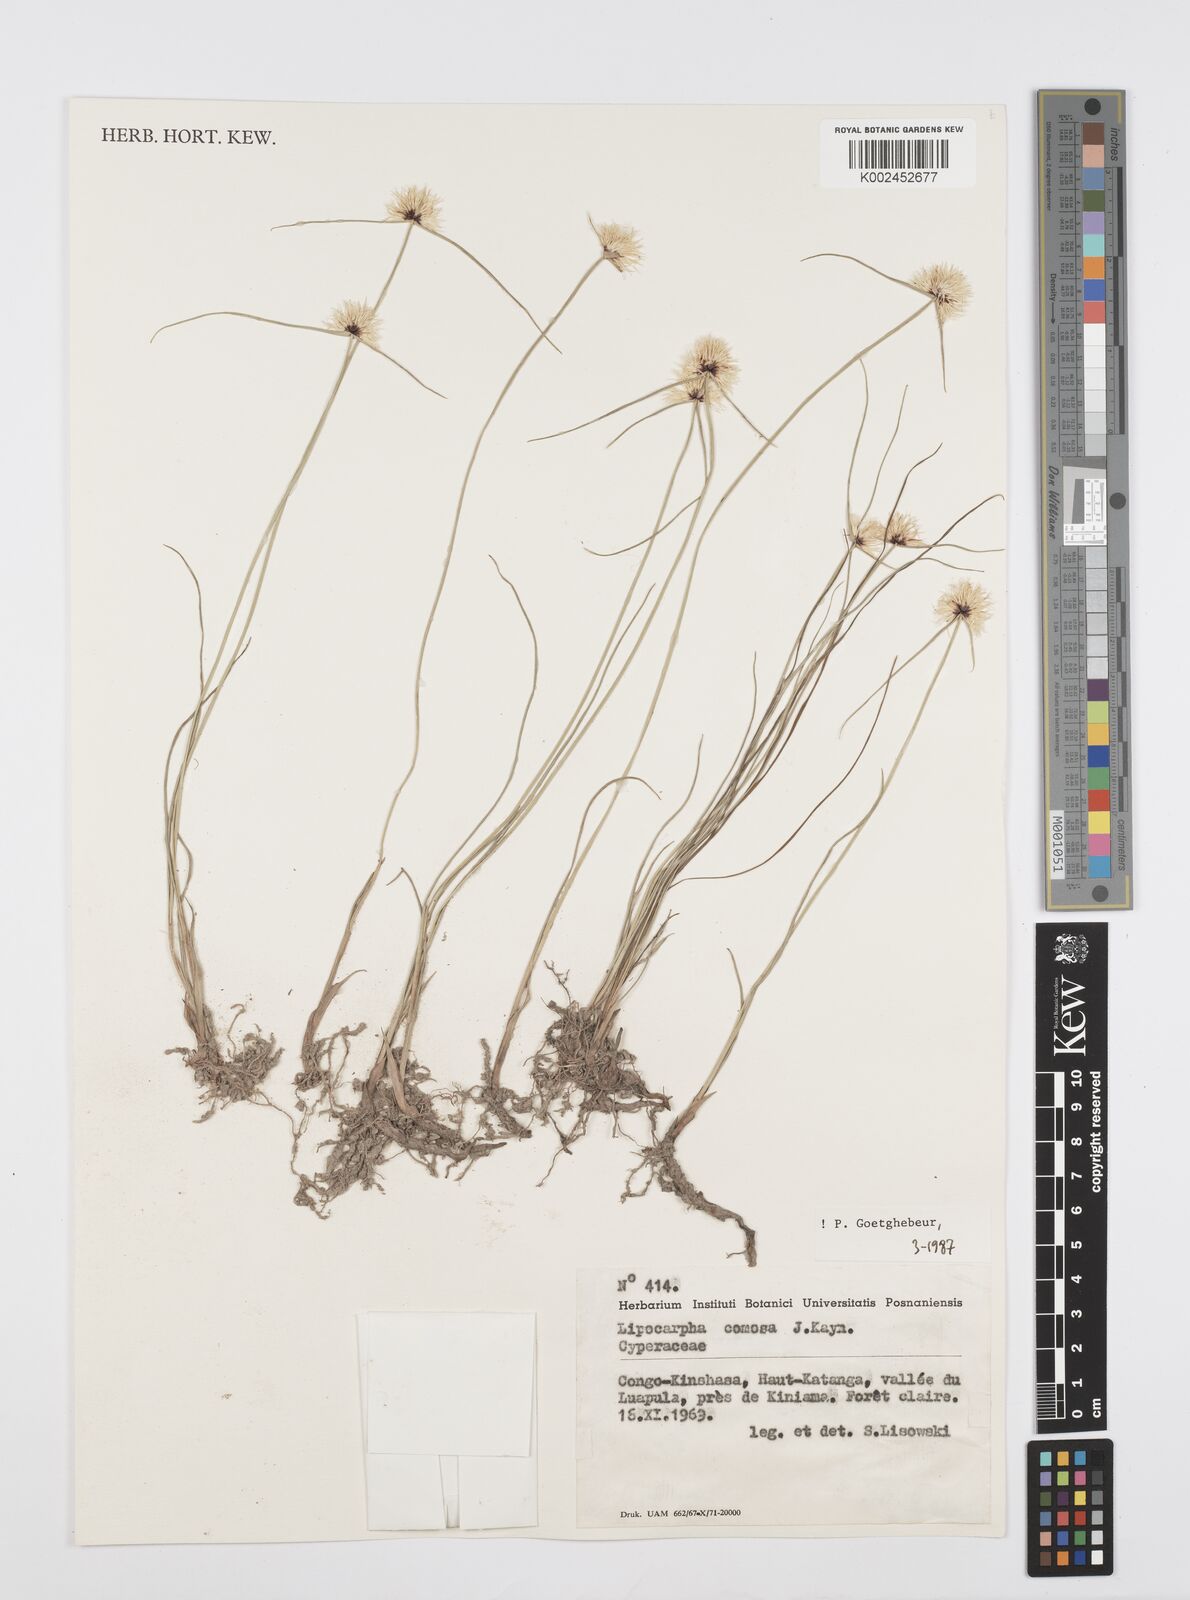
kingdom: Plantae
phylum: Tracheophyta
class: Liliopsida
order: Poales
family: Cyperaceae
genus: Cyperus
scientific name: Cyperus lipocomosus
